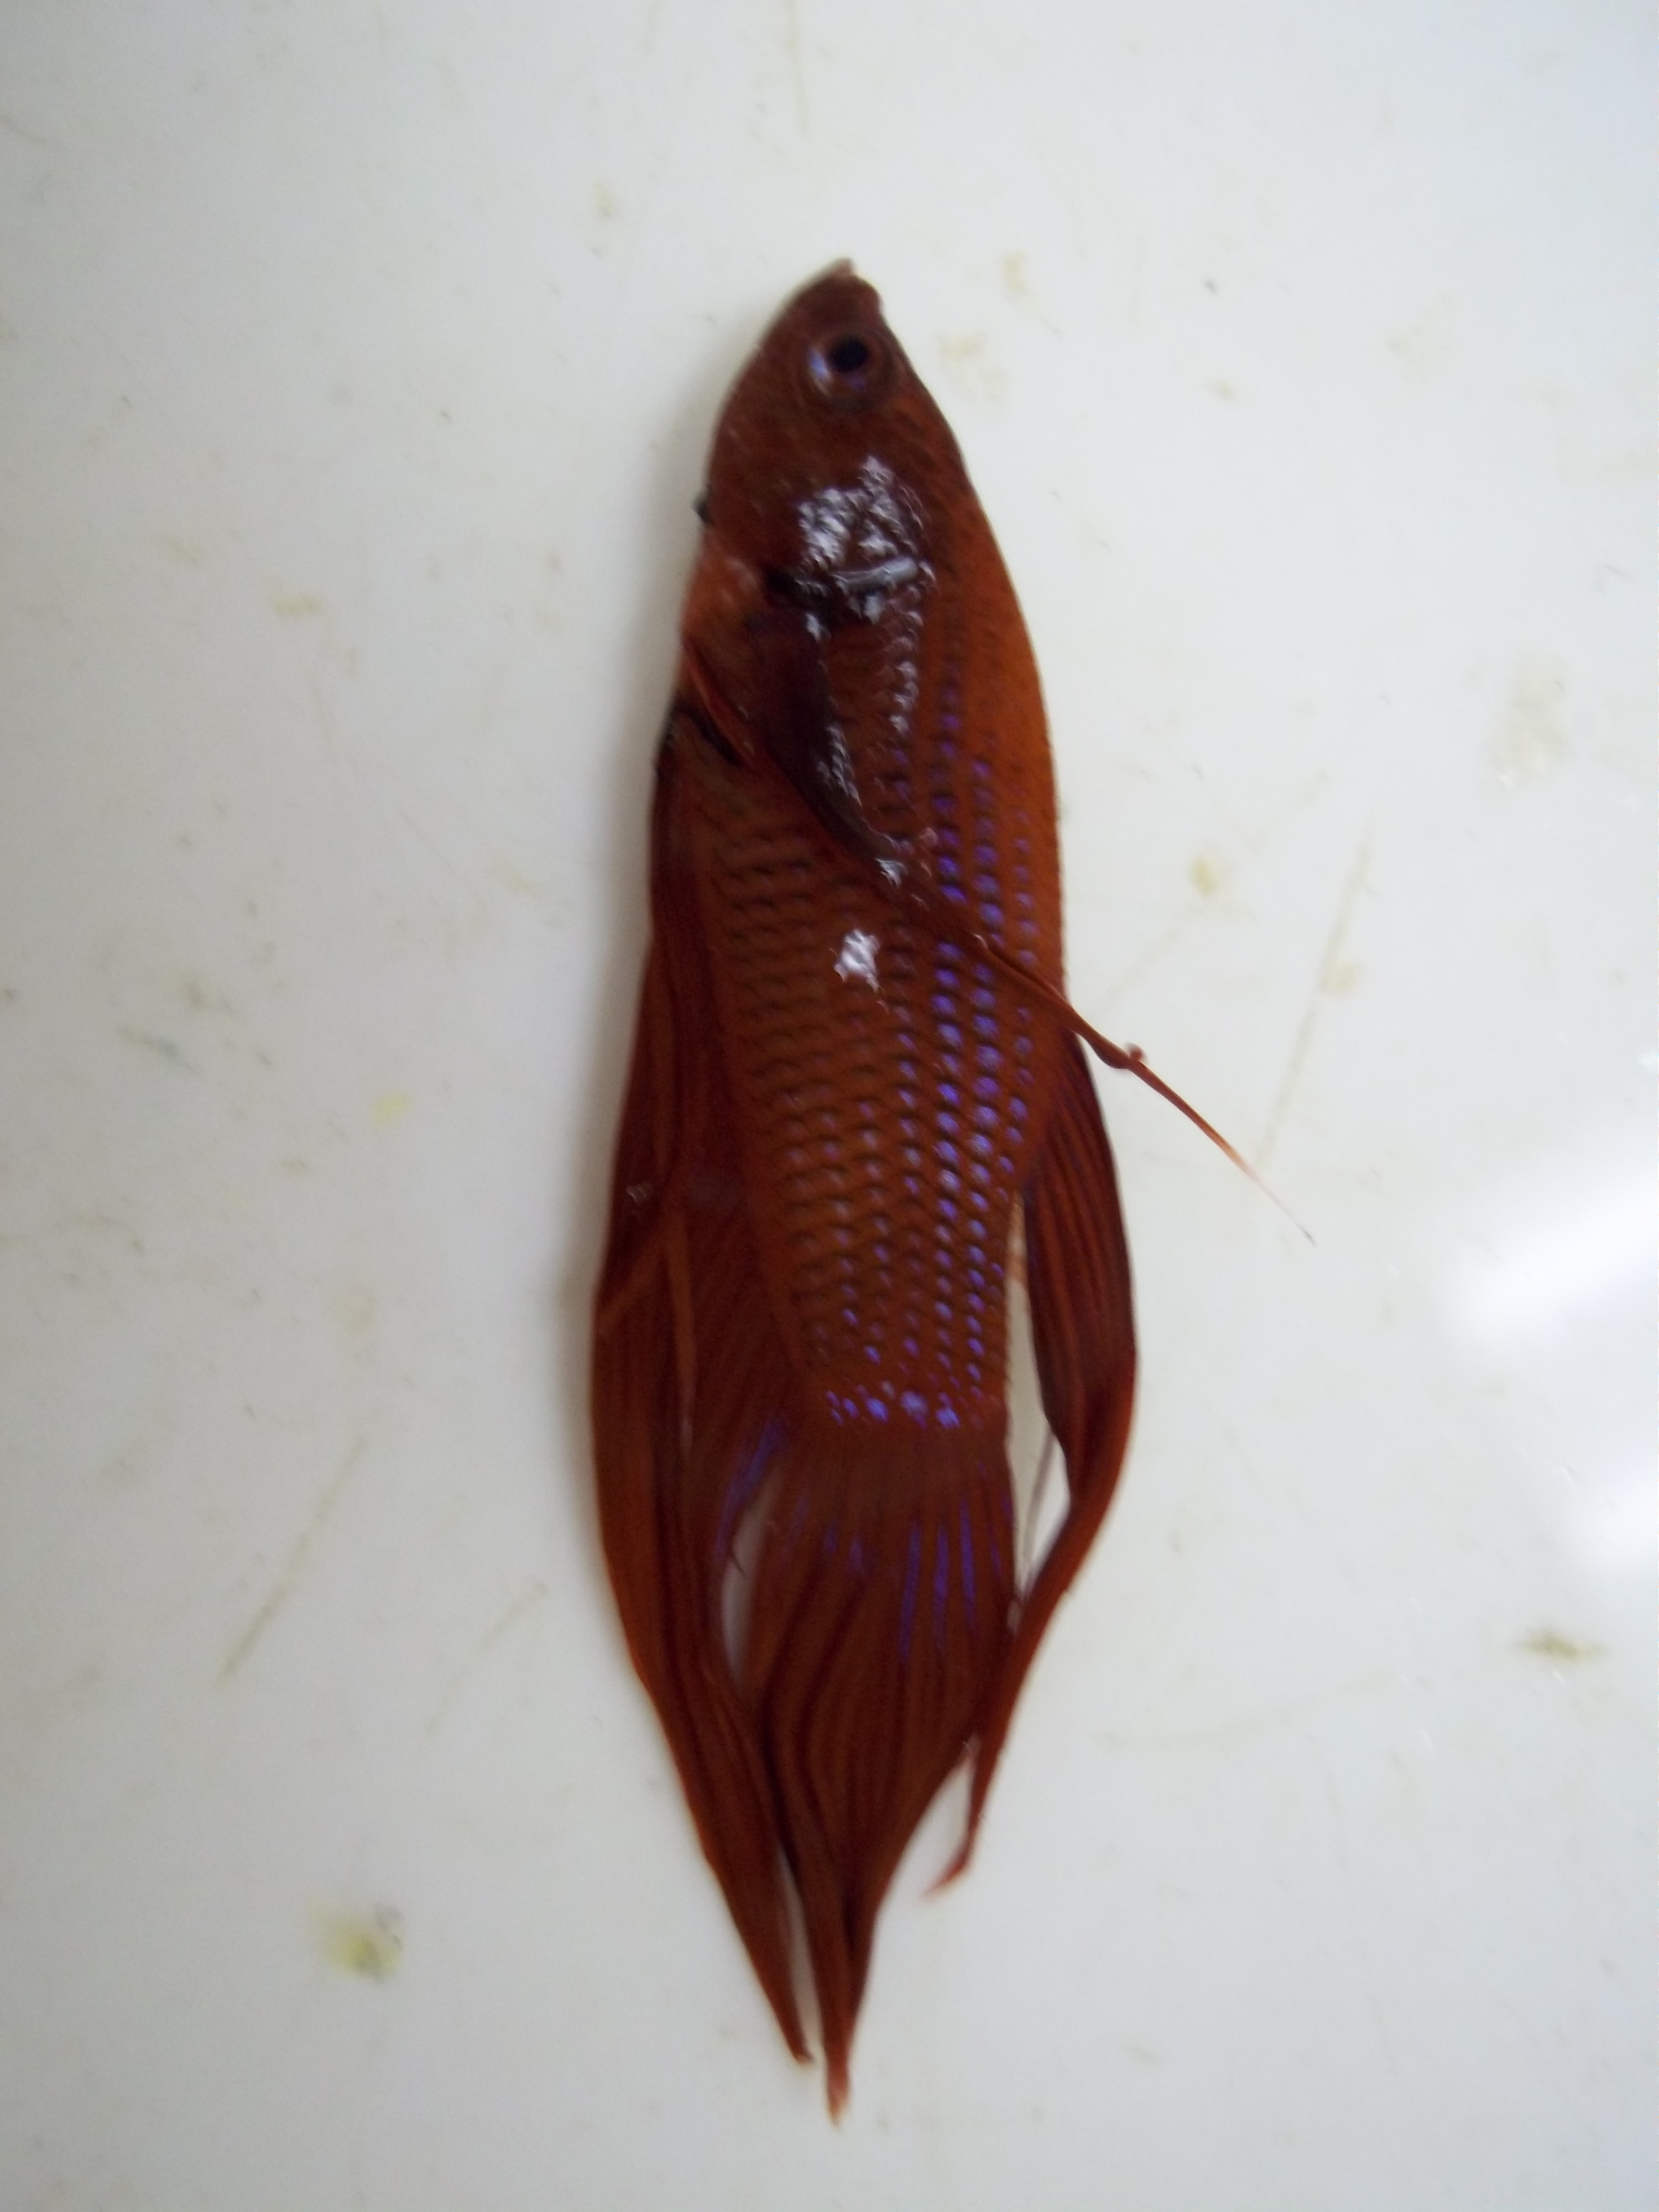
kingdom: Animalia
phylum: Chordata
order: Perciformes
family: Osphronemidae
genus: Betta
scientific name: Betta splendens
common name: Siamese fighting fish
